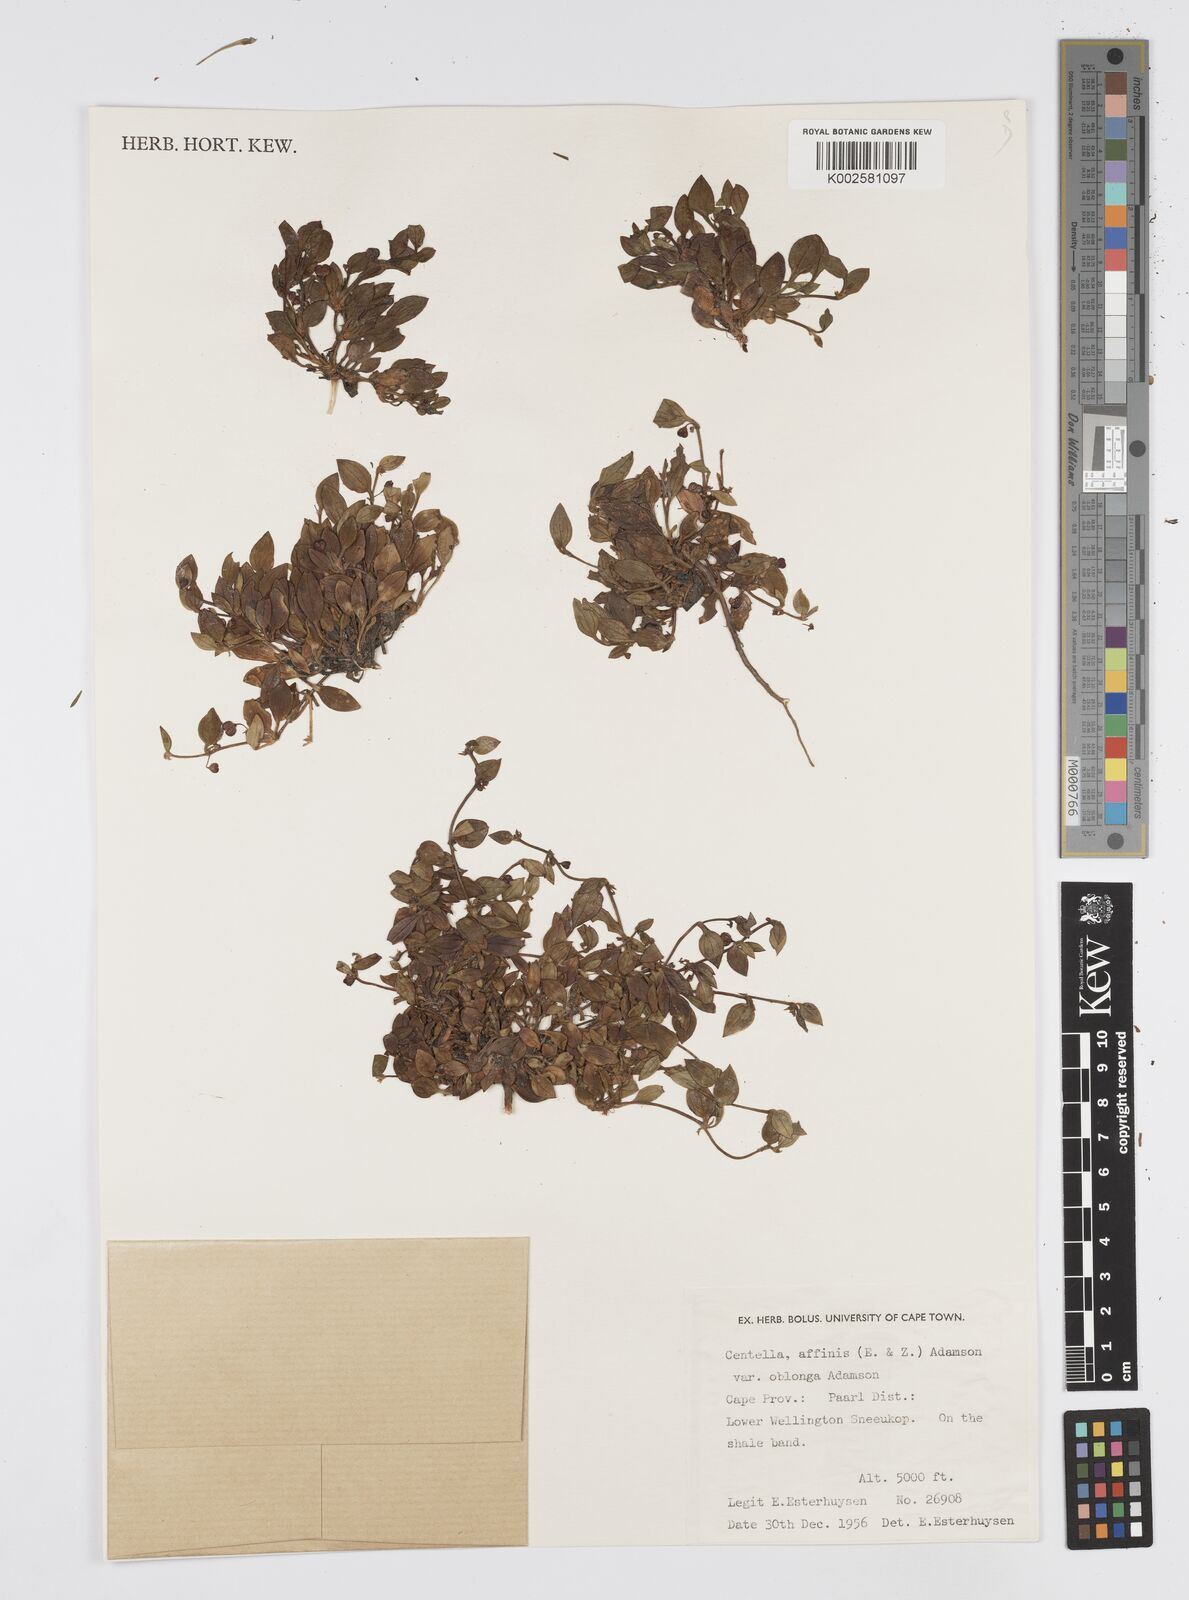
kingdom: Plantae
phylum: Tracheophyta
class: Magnoliopsida
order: Apiales
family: Apiaceae
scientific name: Apiaceae
